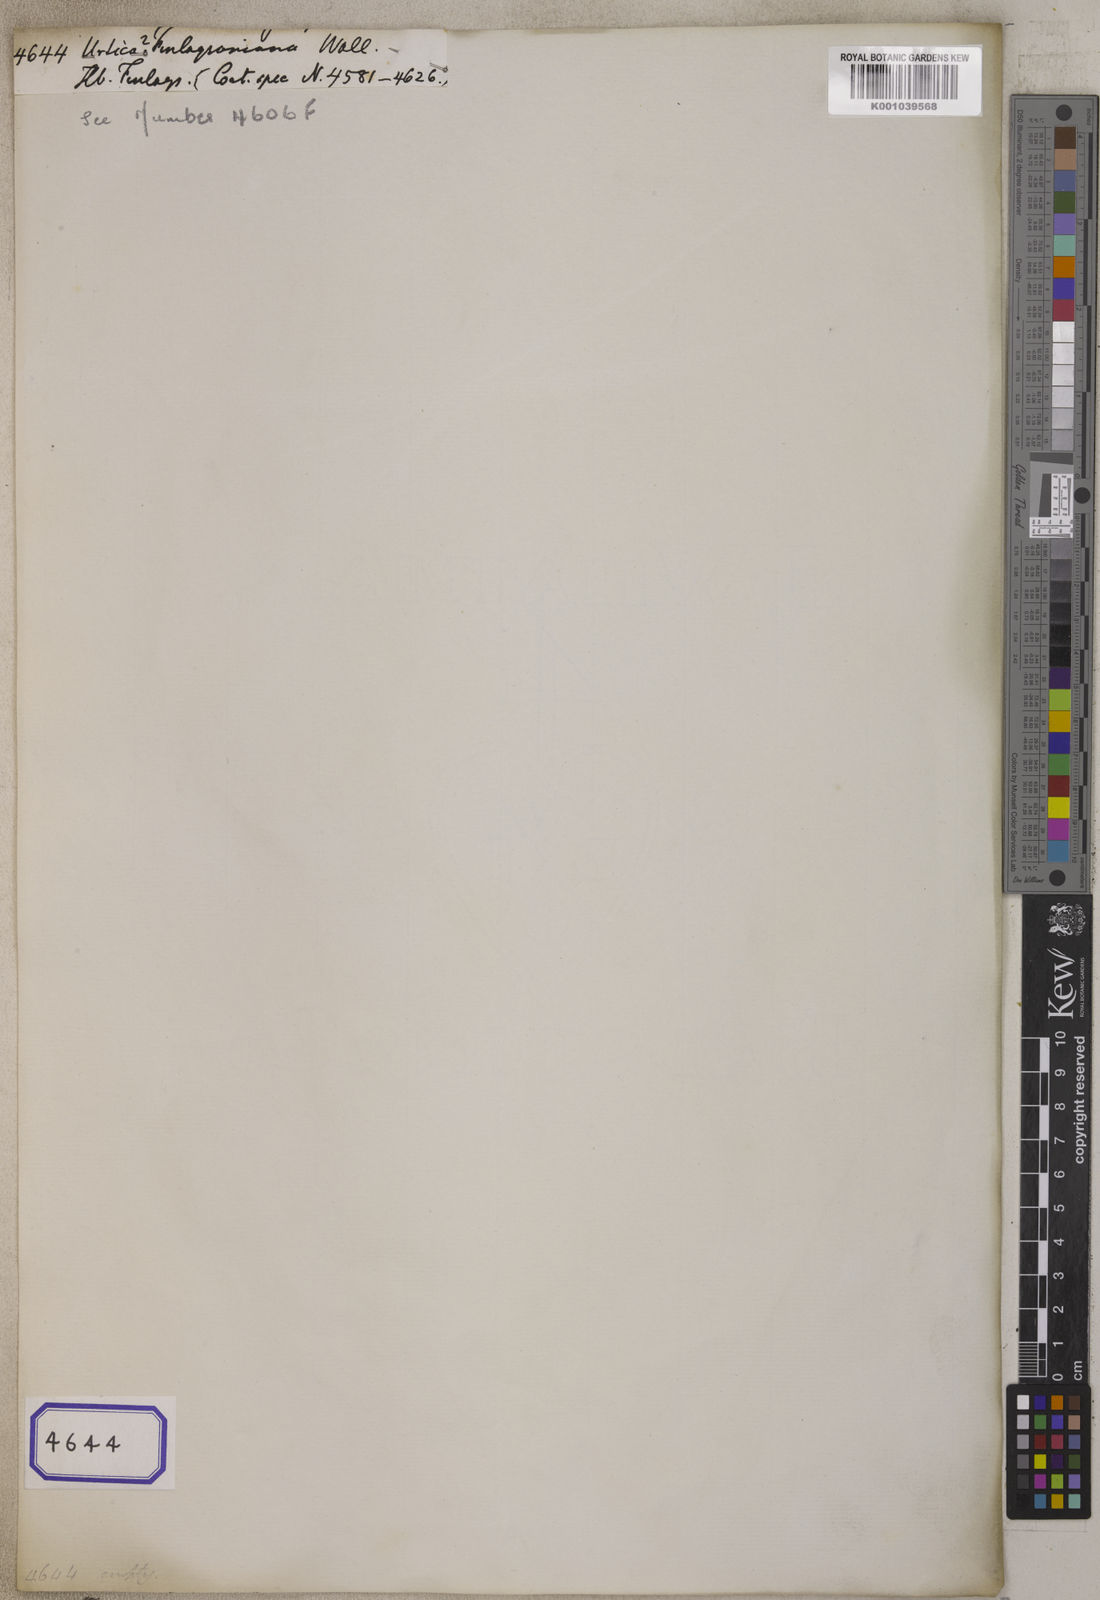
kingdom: Plantae
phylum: Tracheophyta
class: Magnoliopsida
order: Rosales
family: Urticaceae
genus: Urtica
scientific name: Urtica finlaysoniana
